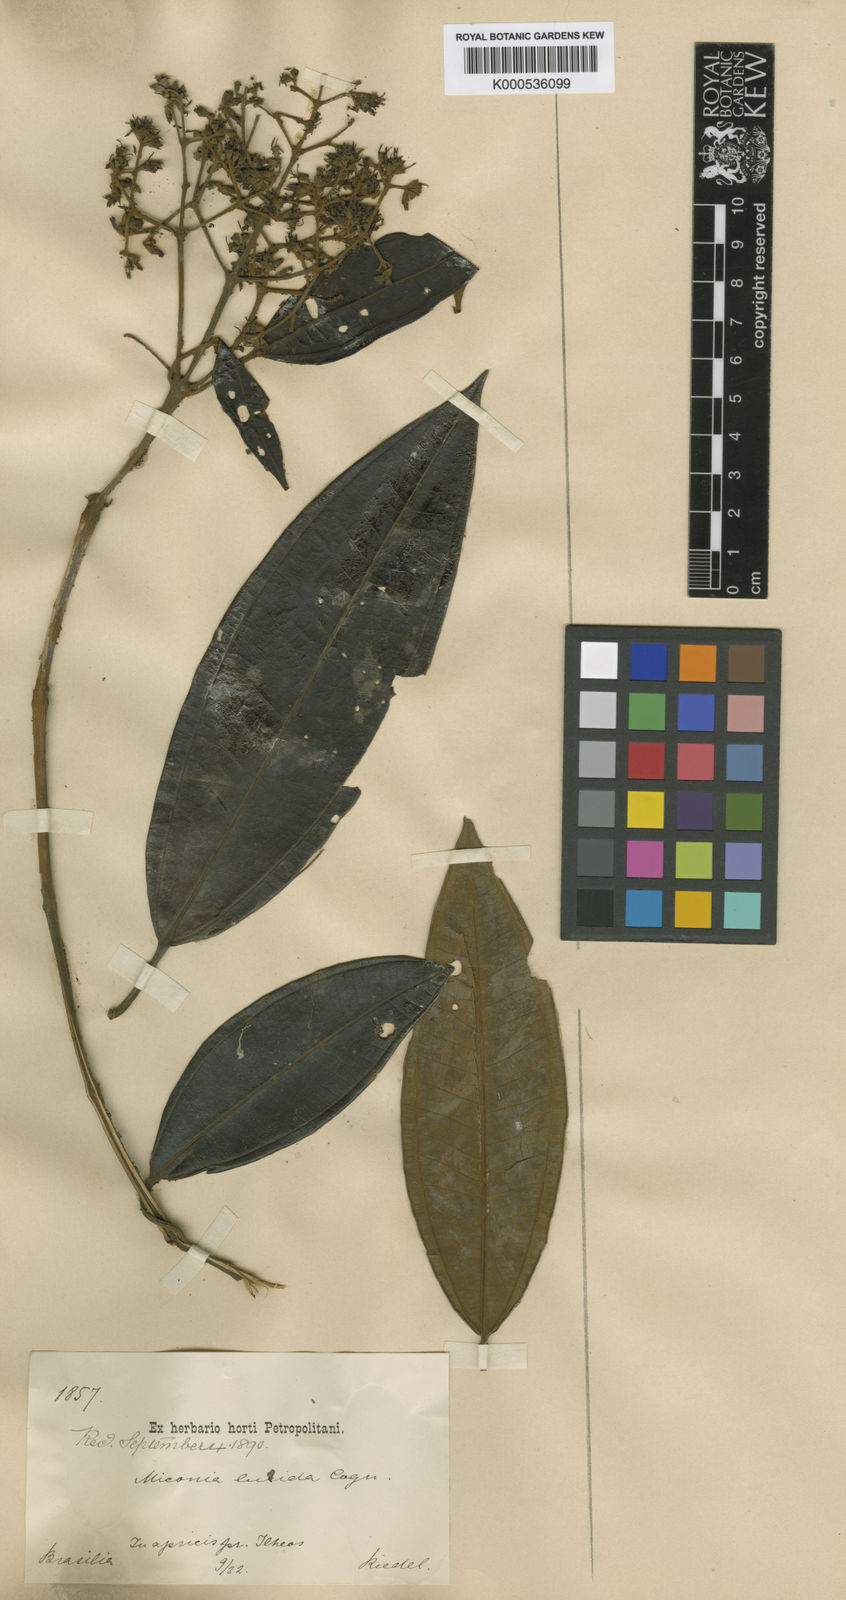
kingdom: Plantae
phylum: Tracheophyta
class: Magnoliopsida
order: Myrtales
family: Melastomataceae
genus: Miconia
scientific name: Miconia lurida
